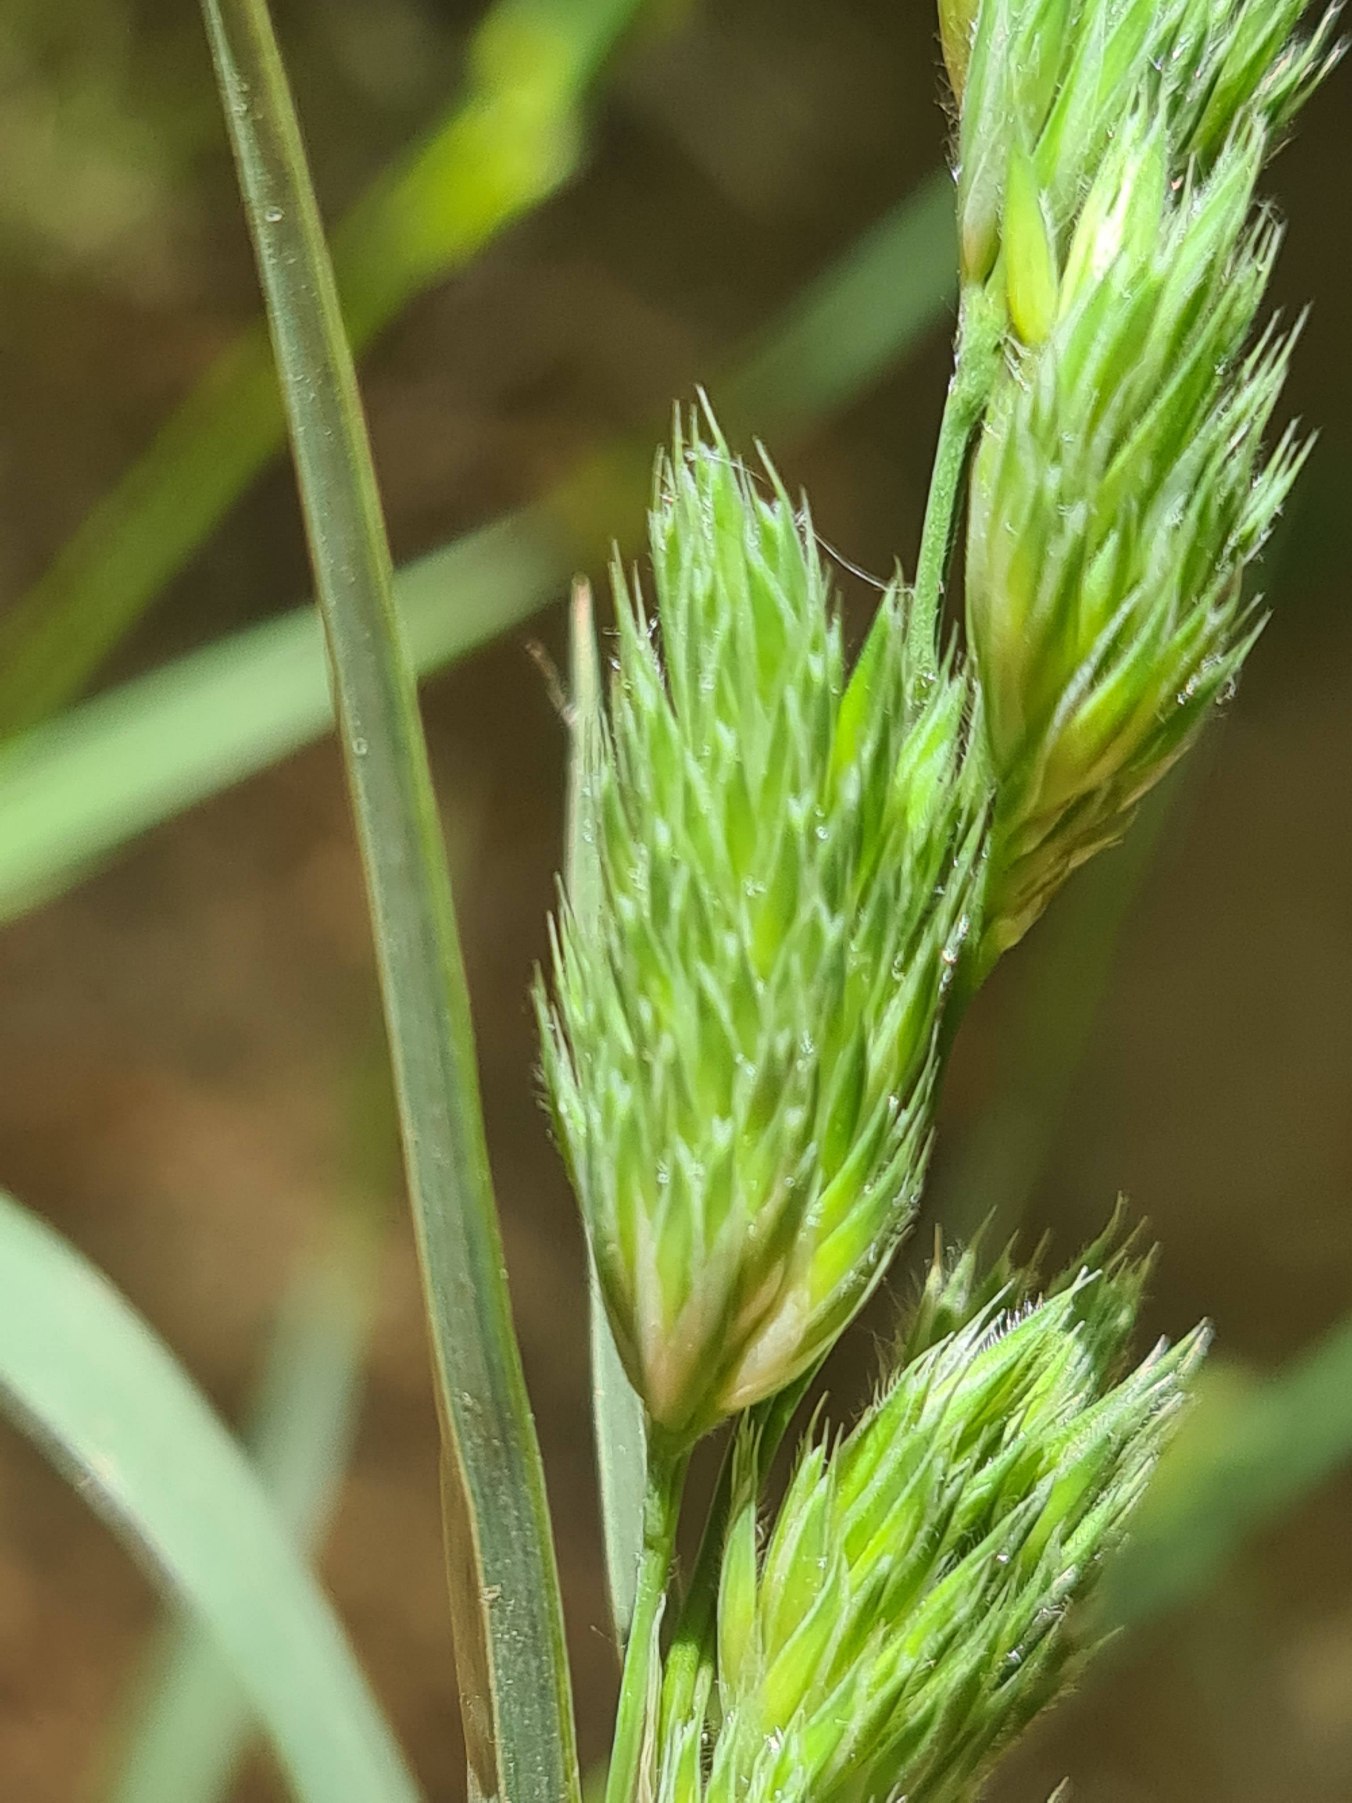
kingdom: Plantae
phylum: Tracheophyta
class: Liliopsida
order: Poales
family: Poaceae
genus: Dactylis
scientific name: Dactylis glomerata
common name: Almindelig hundegræs
